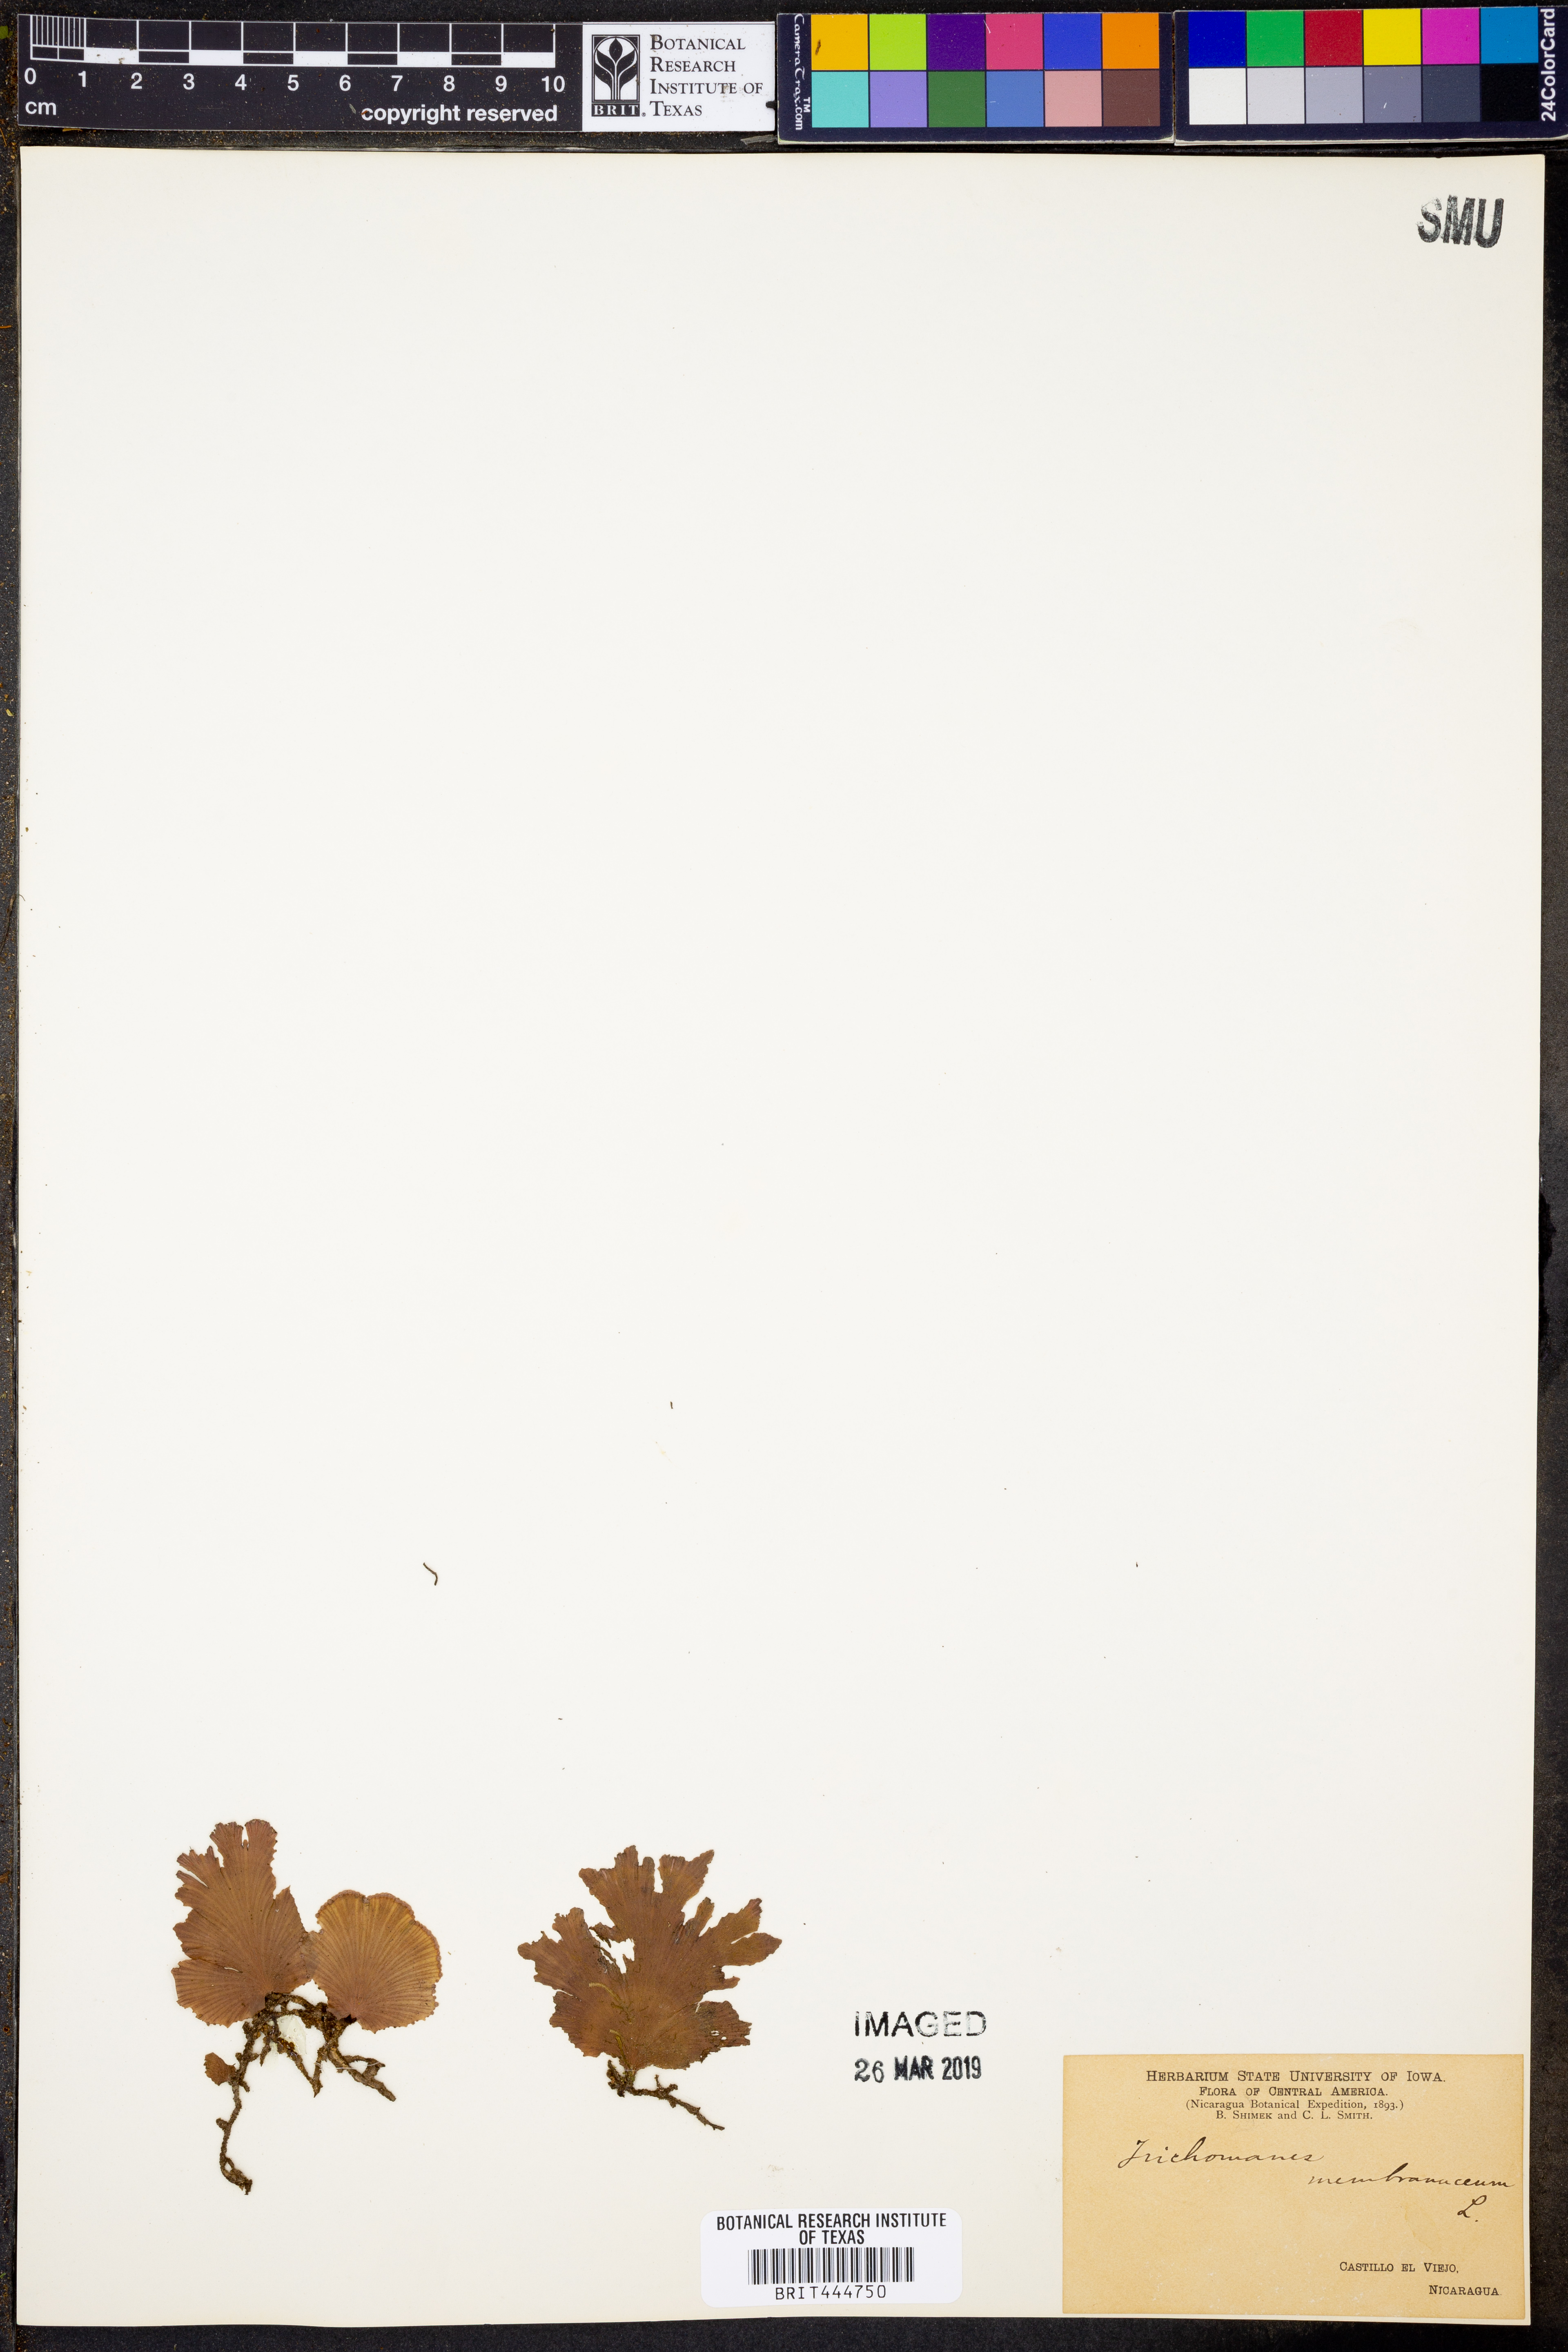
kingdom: Plantae
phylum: Tracheophyta
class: Polypodiopsida
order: Hymenophyllales
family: Hymenophyllaceae
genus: Didymoglossum
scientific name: Didymoglossum membranaceum
